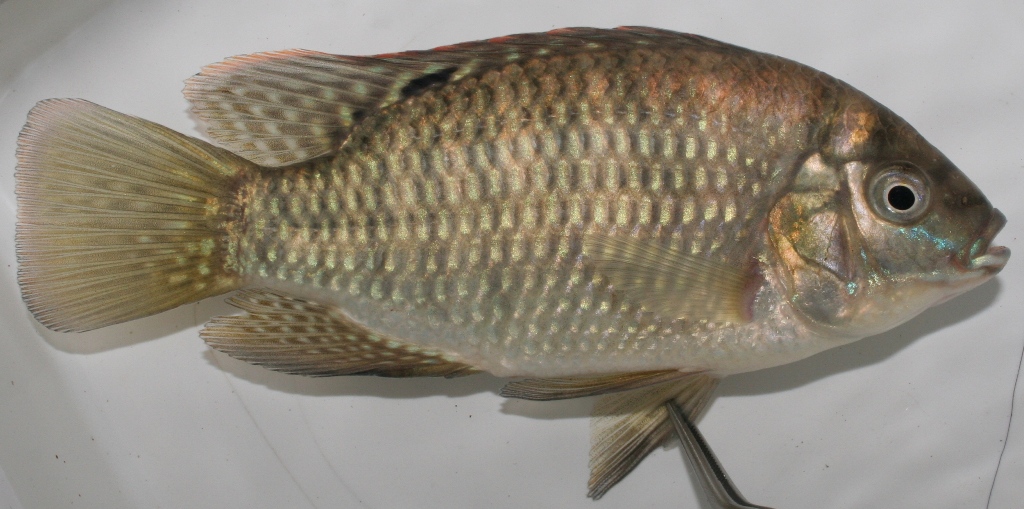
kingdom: Animalia
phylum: Chordata
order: Perciformes
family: Cichlidae
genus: Tilapia
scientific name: Tilapia sparrmanii
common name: Banded tilapia
